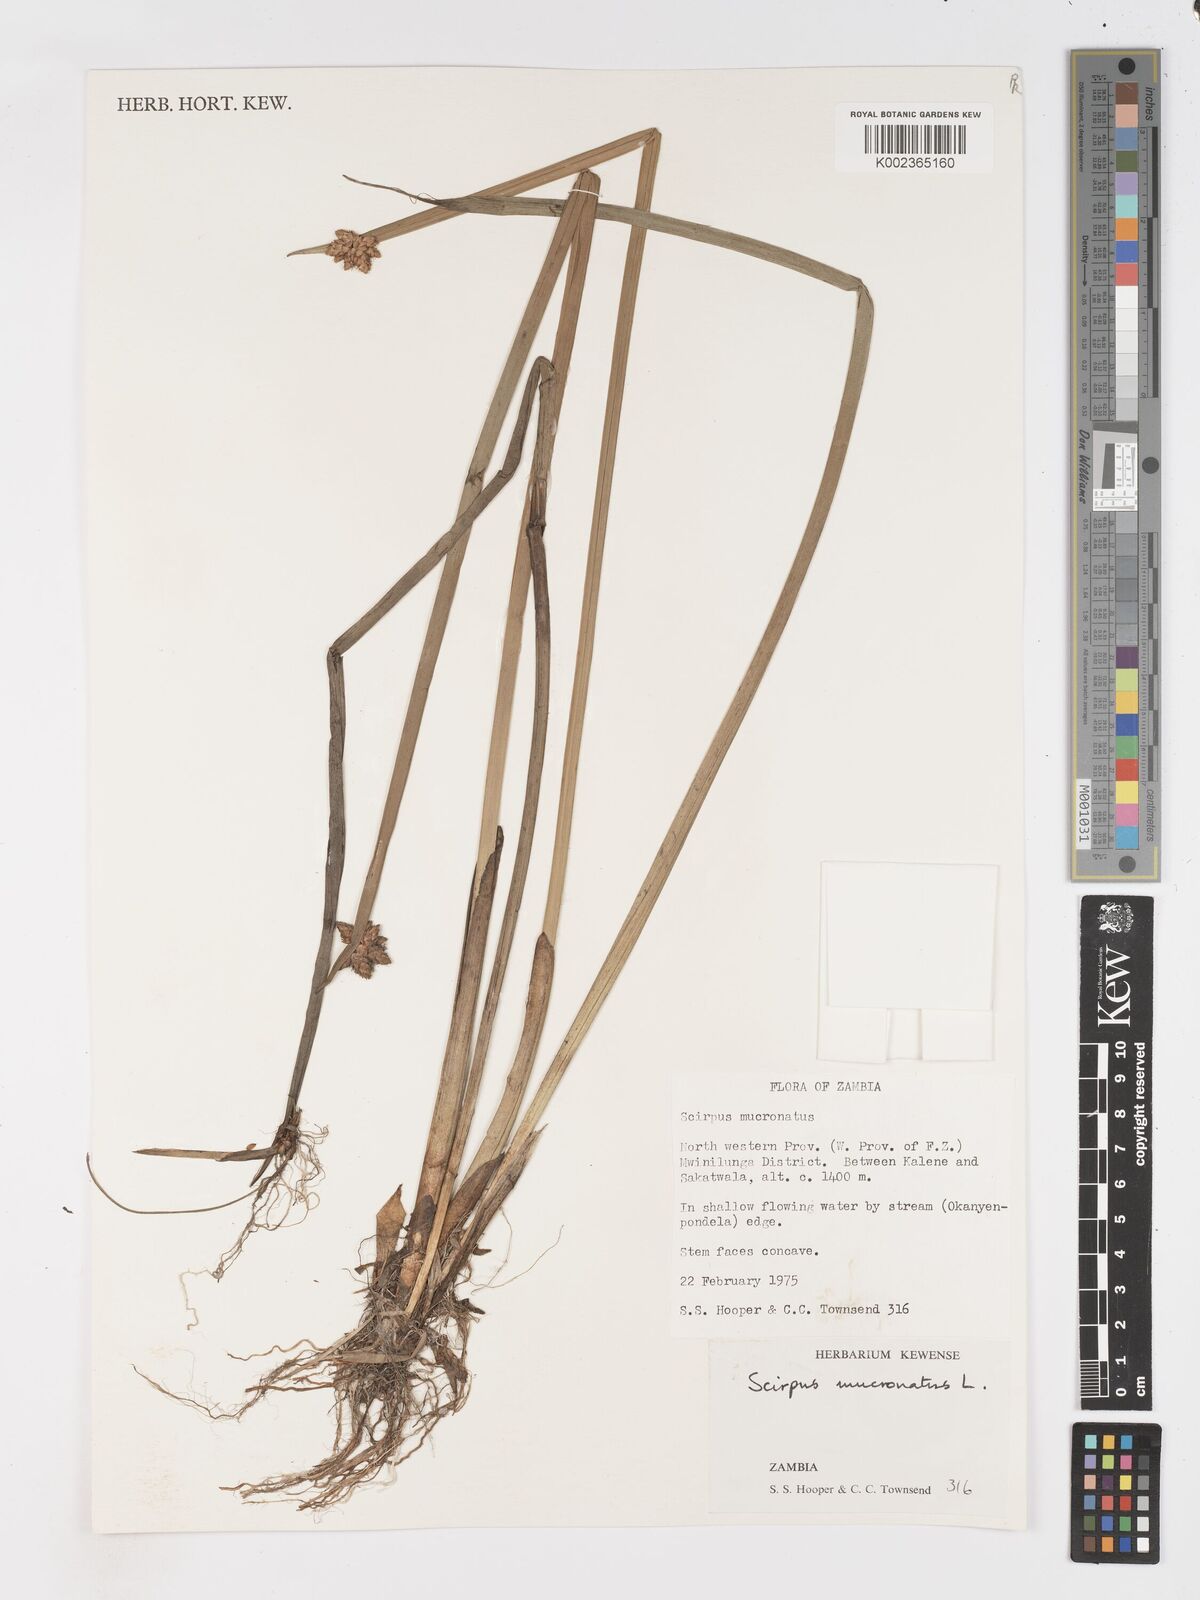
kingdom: Plantae
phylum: Tracheophyta
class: Liliopsida
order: Poales
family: Cyperaceae
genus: Schoenoplectiella
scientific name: Schoenoplectiella mucronata
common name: Bog bulrush
